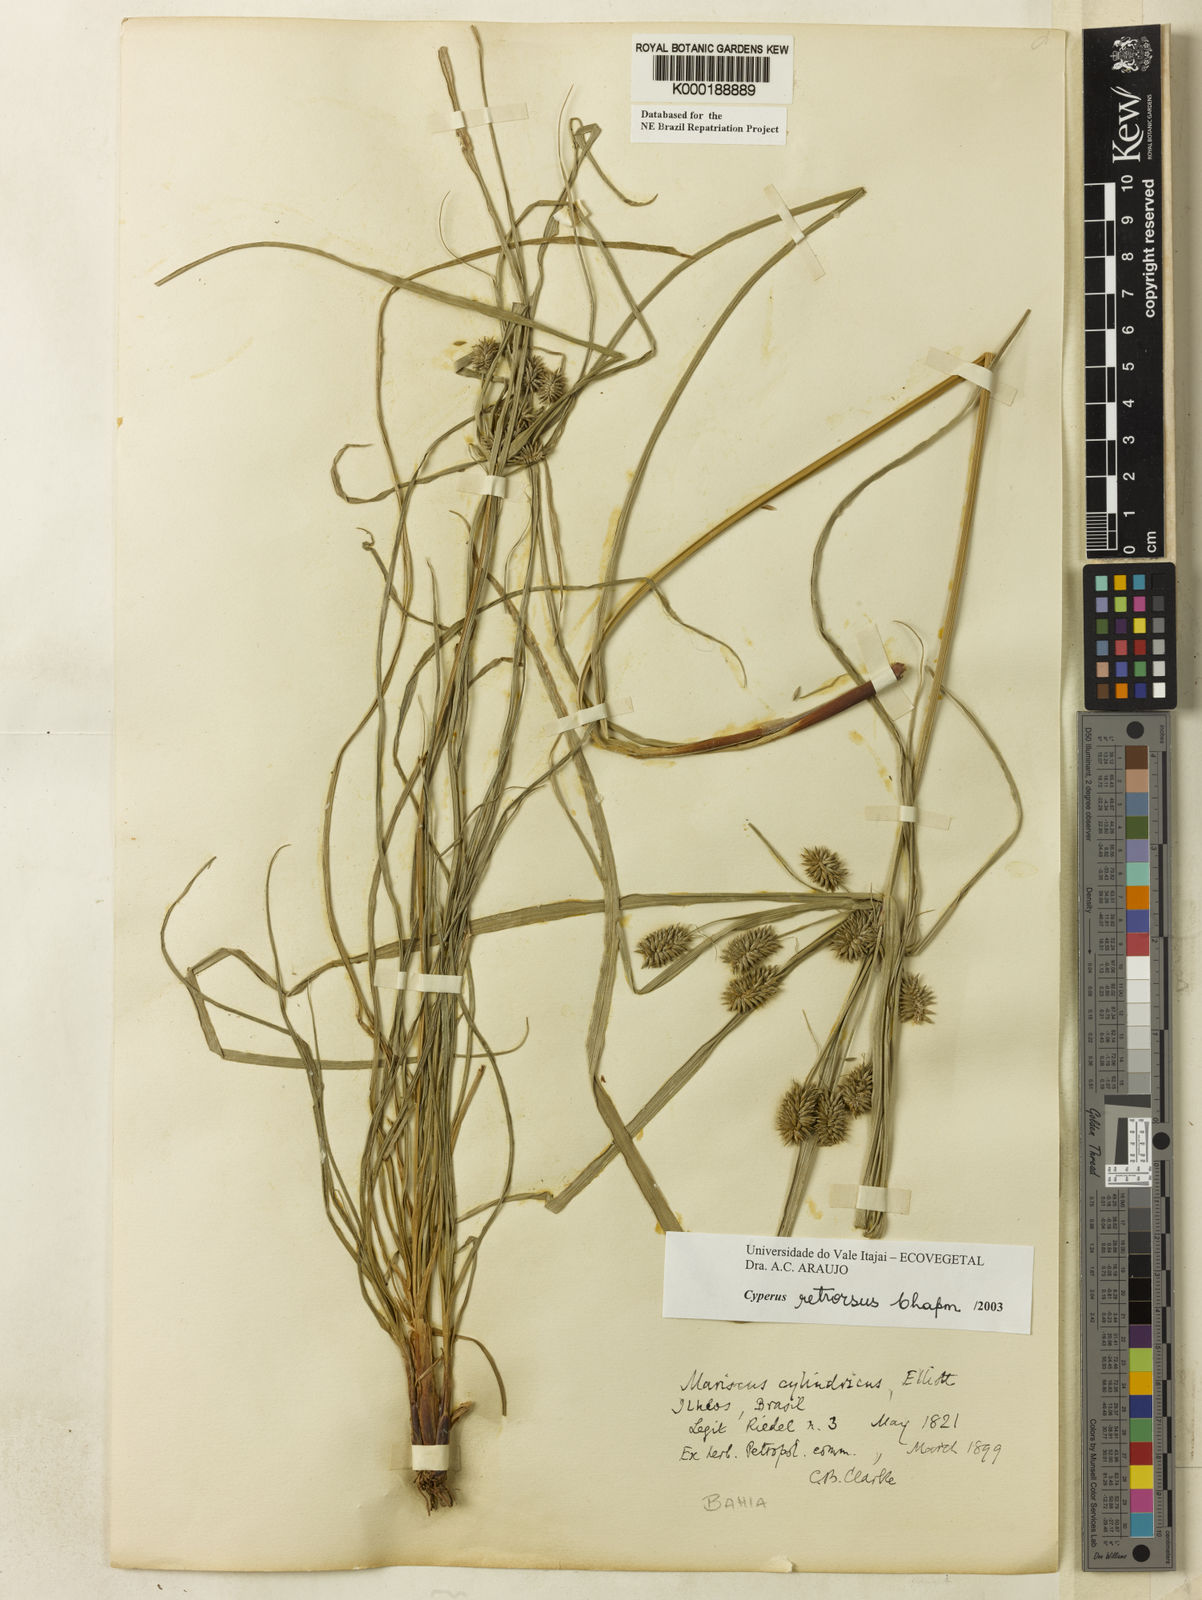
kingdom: Plantae
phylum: Tracheophyta
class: Liliopsida
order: Poales
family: Cyperaceae
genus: Cyperus
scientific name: Cyperus retrorsus
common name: Pinebarren flat sedge
